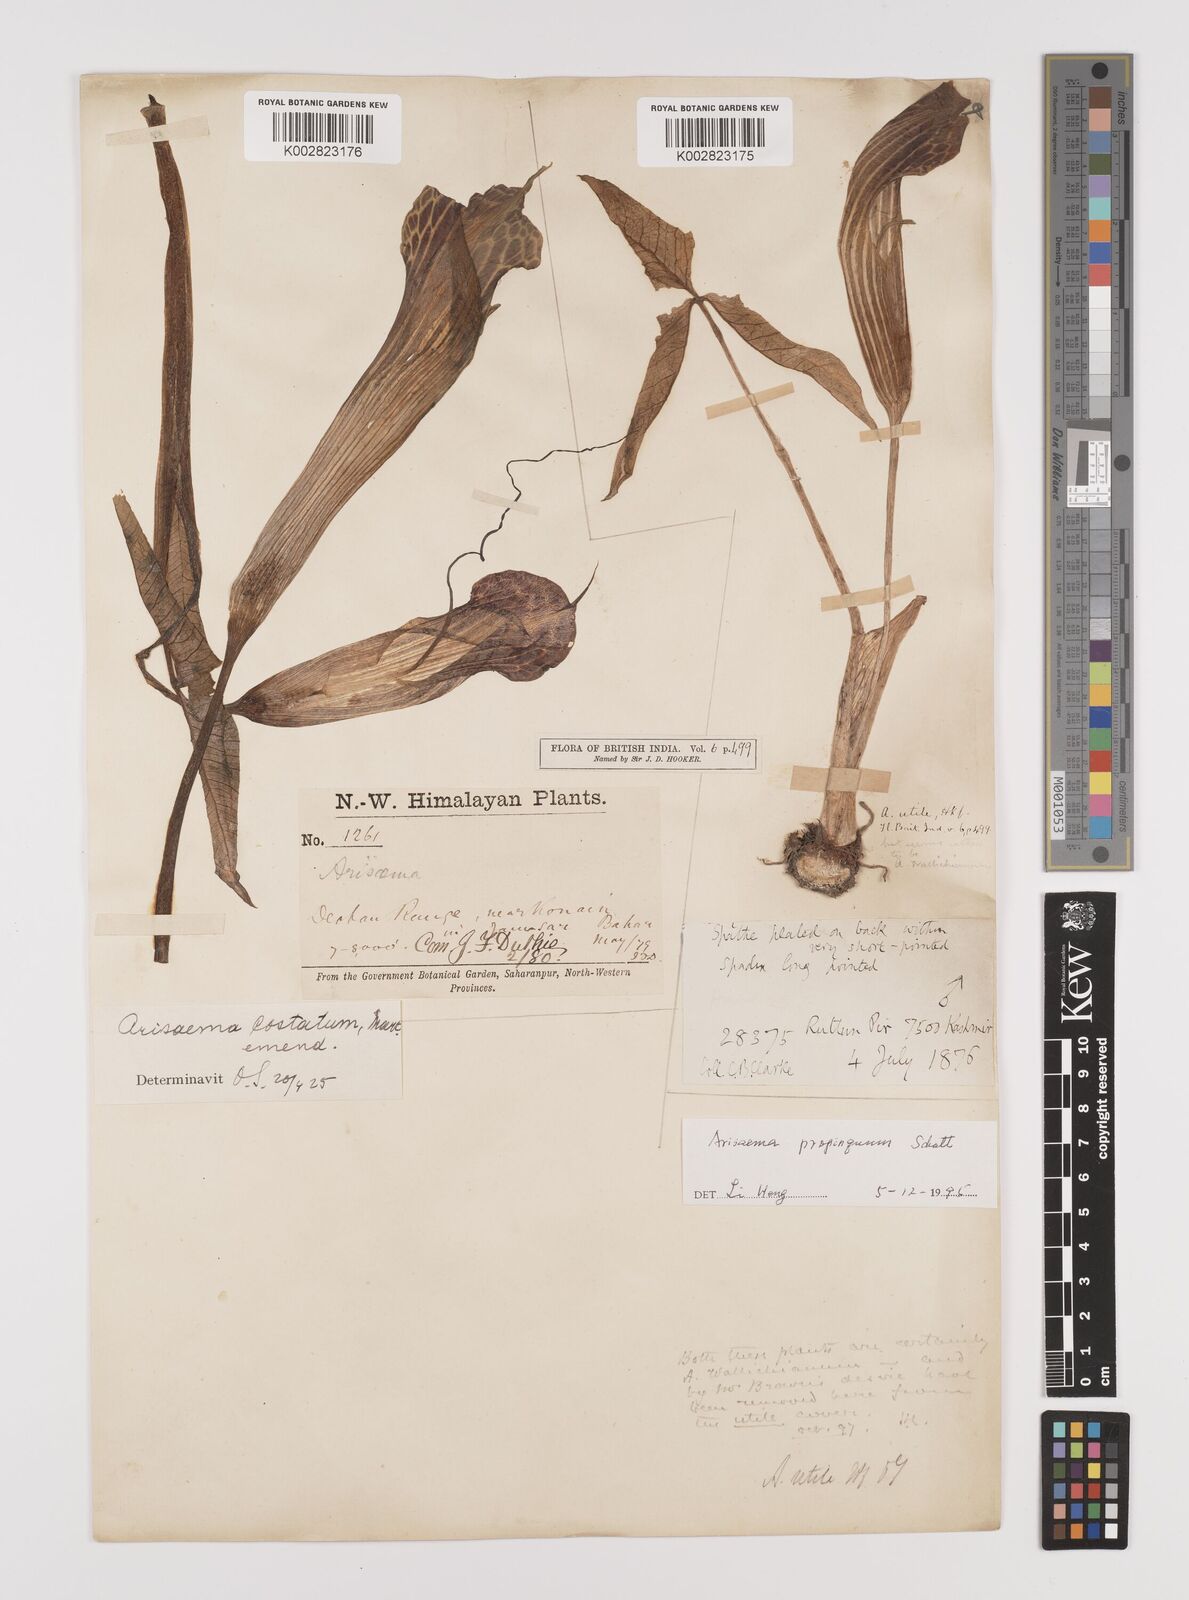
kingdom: Plantae
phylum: Tracheophyta
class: Liliopsida
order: Alismatales
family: Araceae
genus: Arisaema
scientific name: Arisaema propinquum
